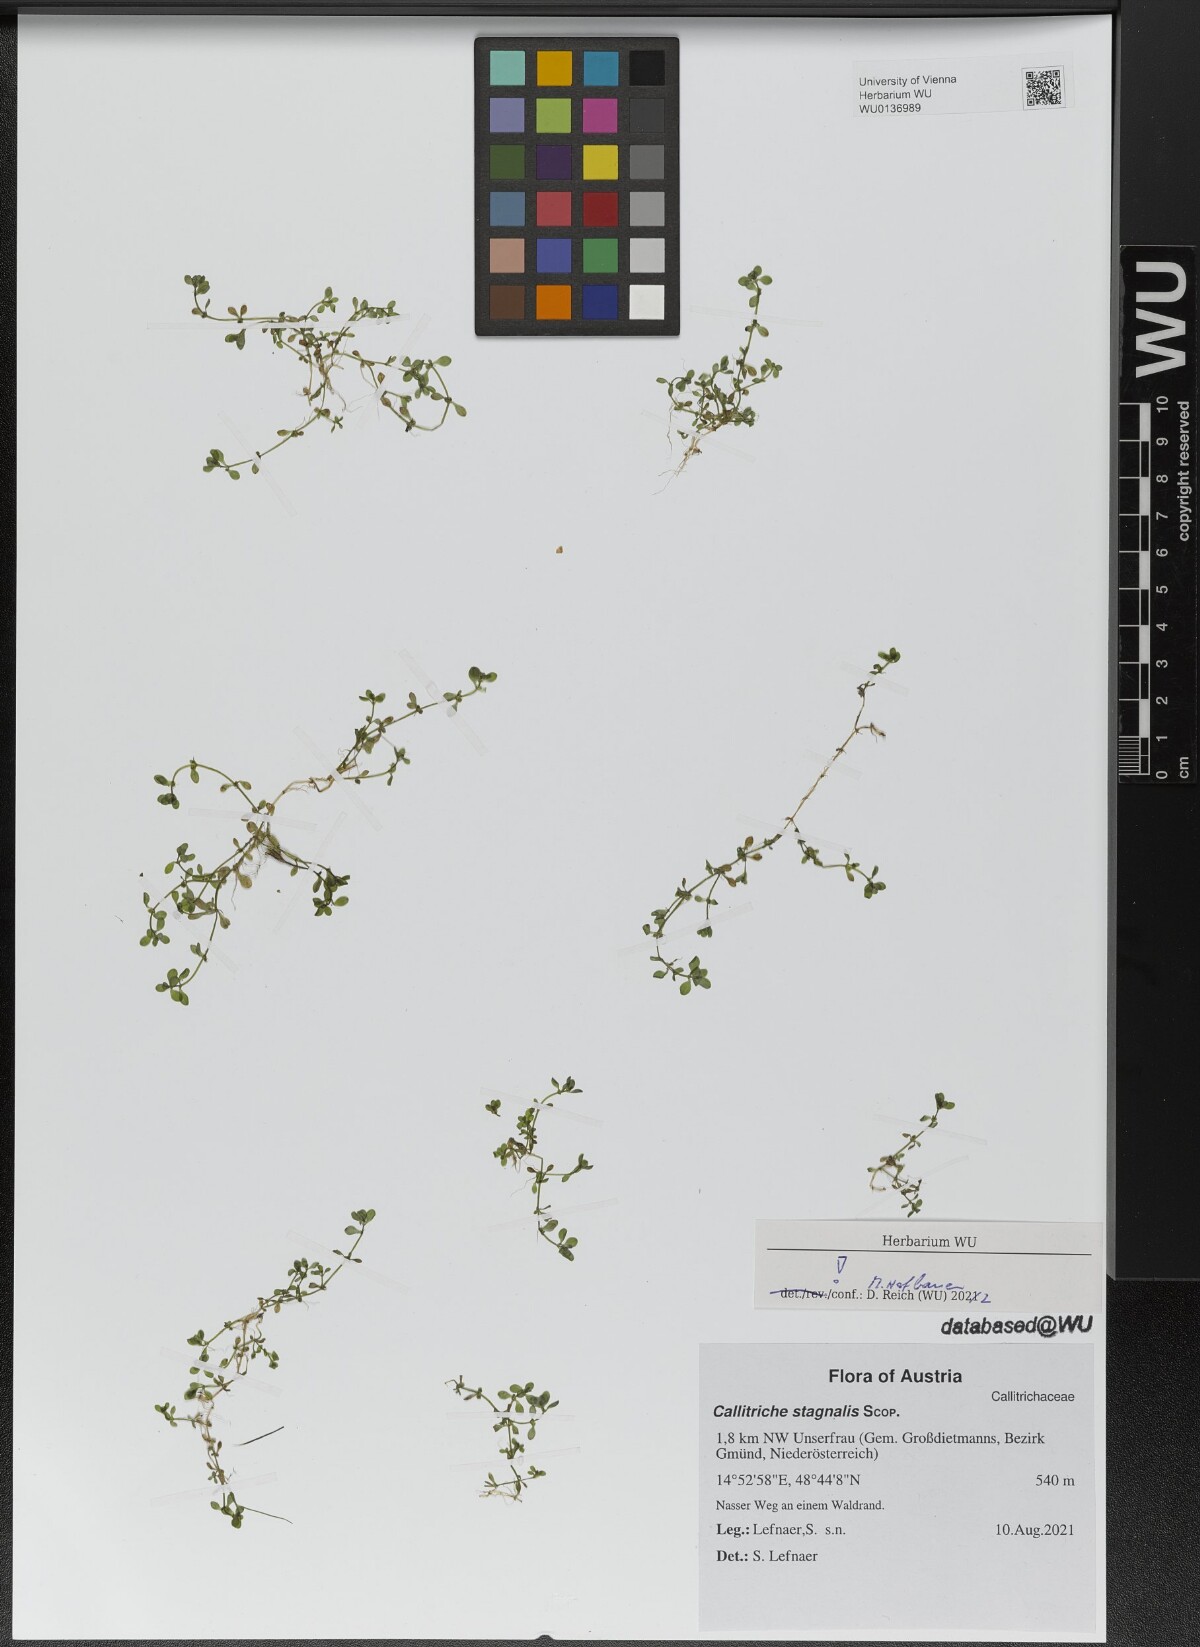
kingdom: Plantae
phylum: Tracheophyta
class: Magnoliopsida
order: Lamiales
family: Plantaginaceae
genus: Callitriche
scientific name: Callitriche stagnalis
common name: Common water-starwort
